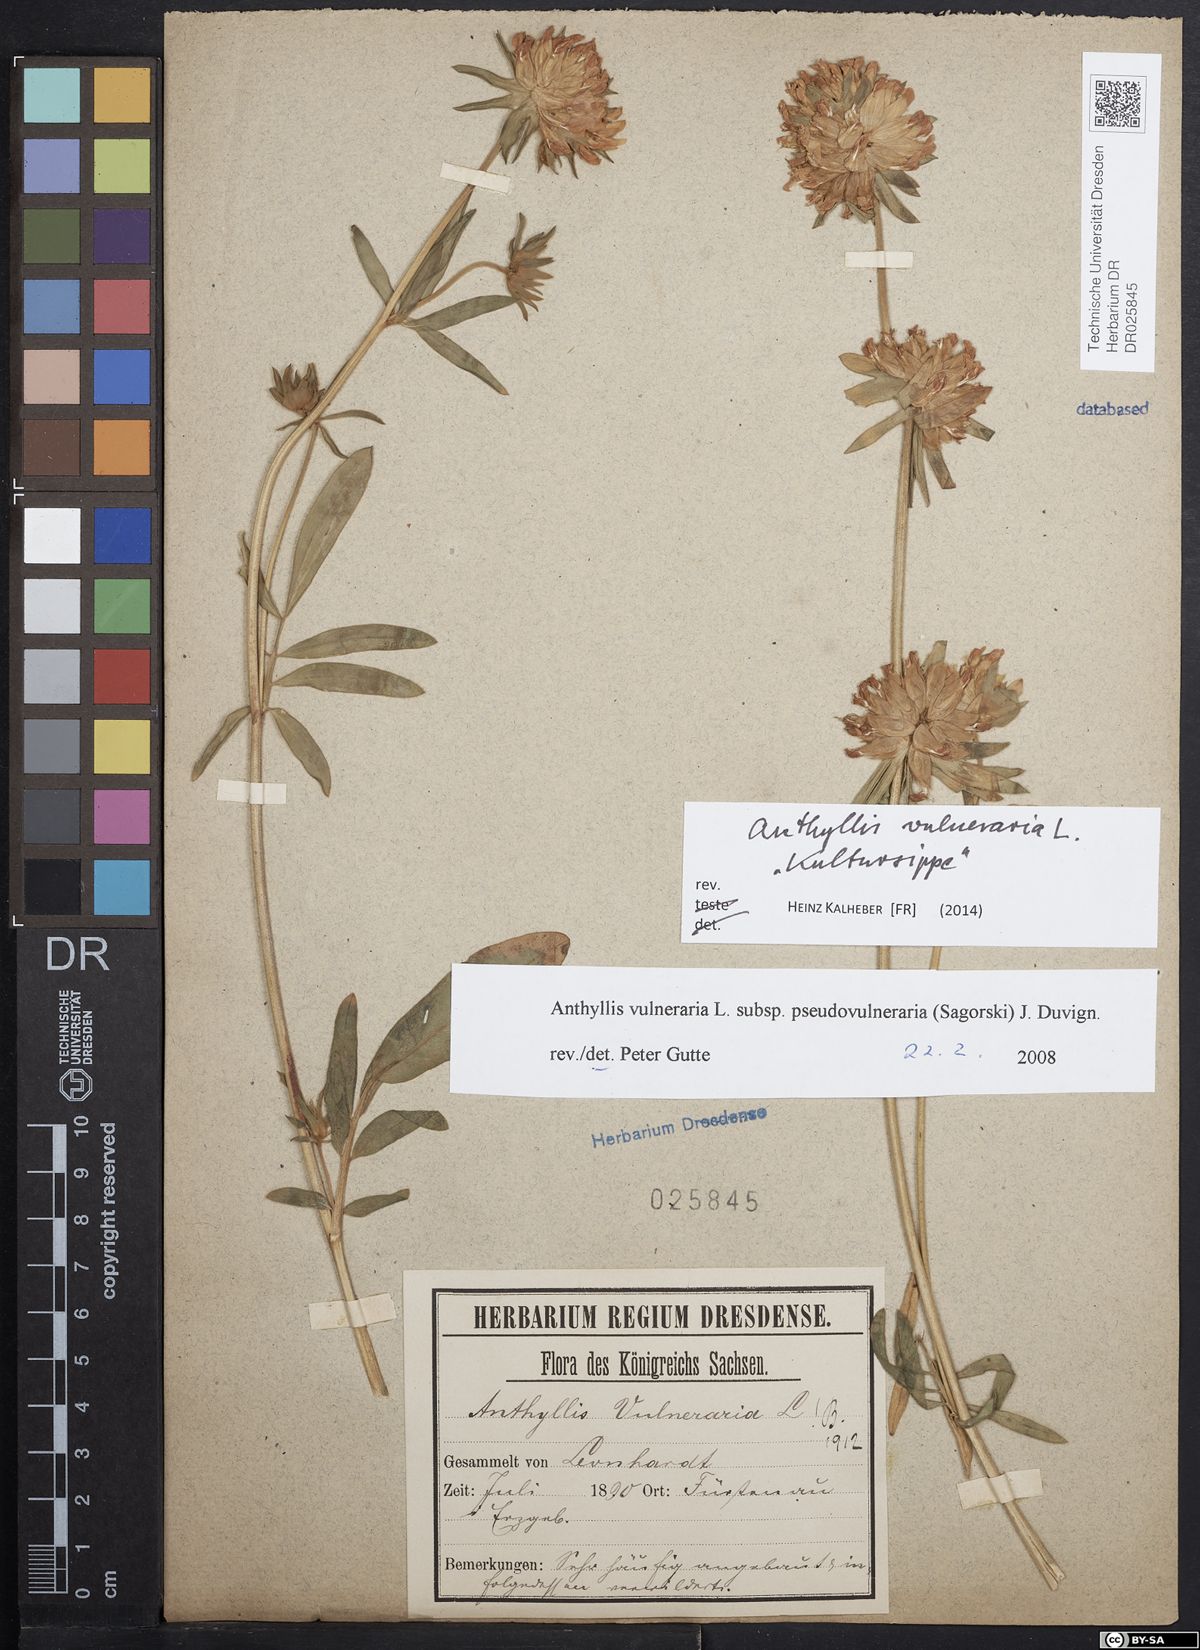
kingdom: Plantae
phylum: Tracheophyta
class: Magnoliopsida
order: Fabales
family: Fabaceae
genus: Anthyllis
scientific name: Anthyllis vulneraria
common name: Kidney vetch
